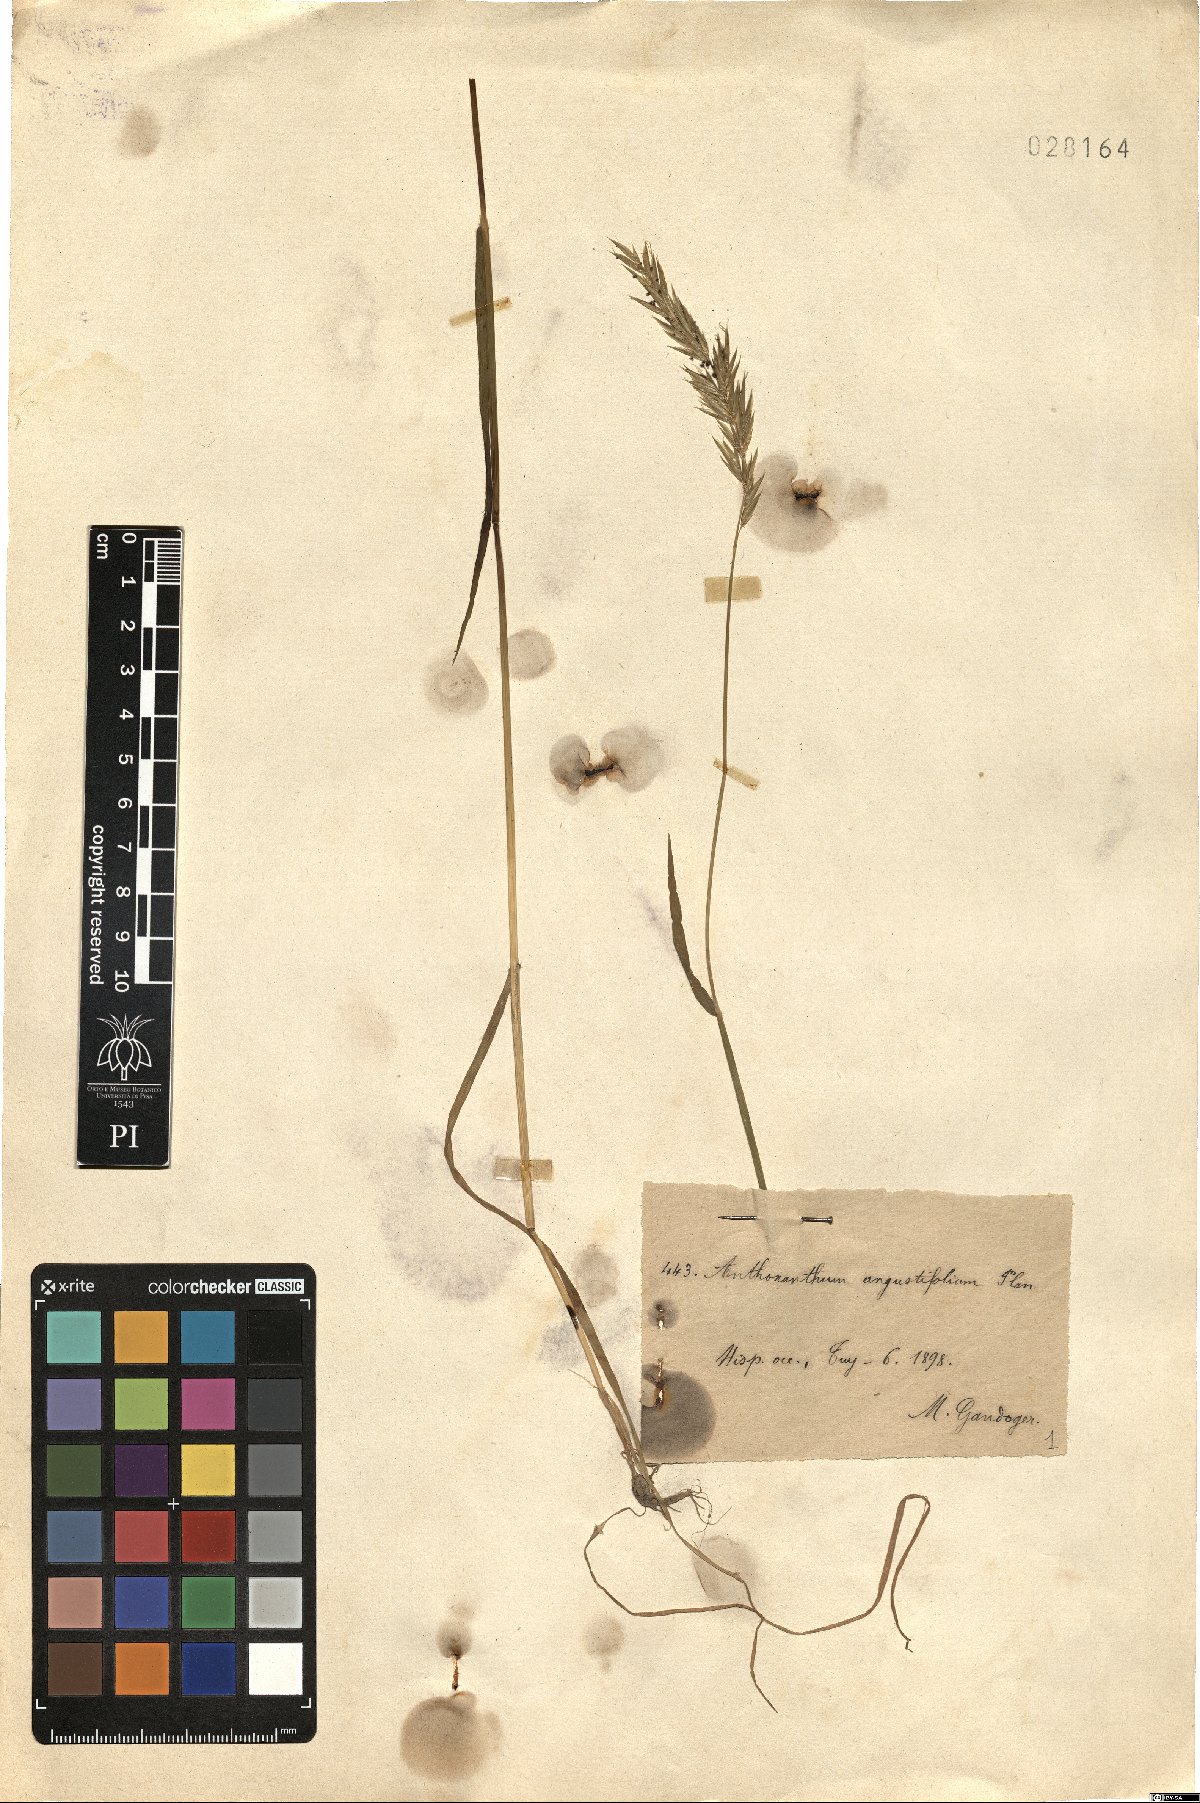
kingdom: Plantae
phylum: Tracheophyta
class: Liliopsida
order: Poales
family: Poaceae
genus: Anthoxanthum
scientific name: Anthoxanthum aristatum
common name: Annual vernal-grass
